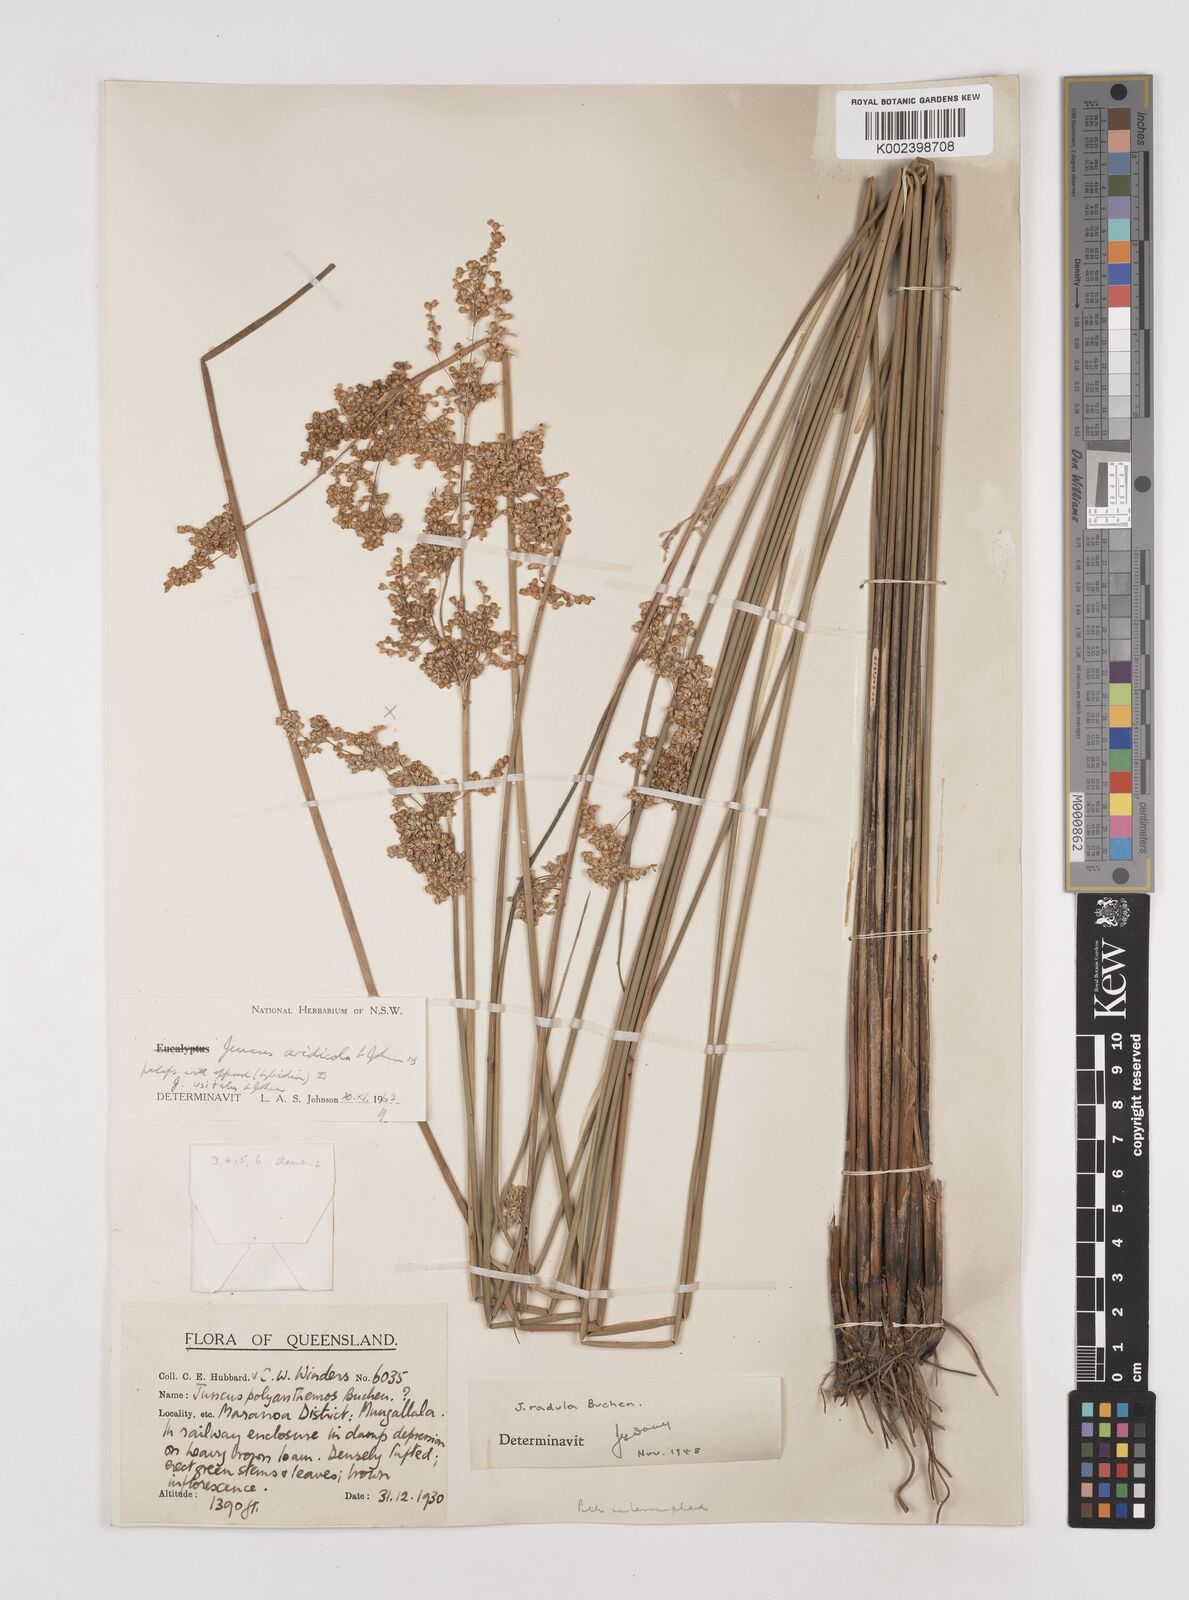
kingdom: Plantae
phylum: Tracheophyta
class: Liliopsida
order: Poales
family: Juncaceae
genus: Juncus
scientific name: Juncus aridicola
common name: Tussock rush
